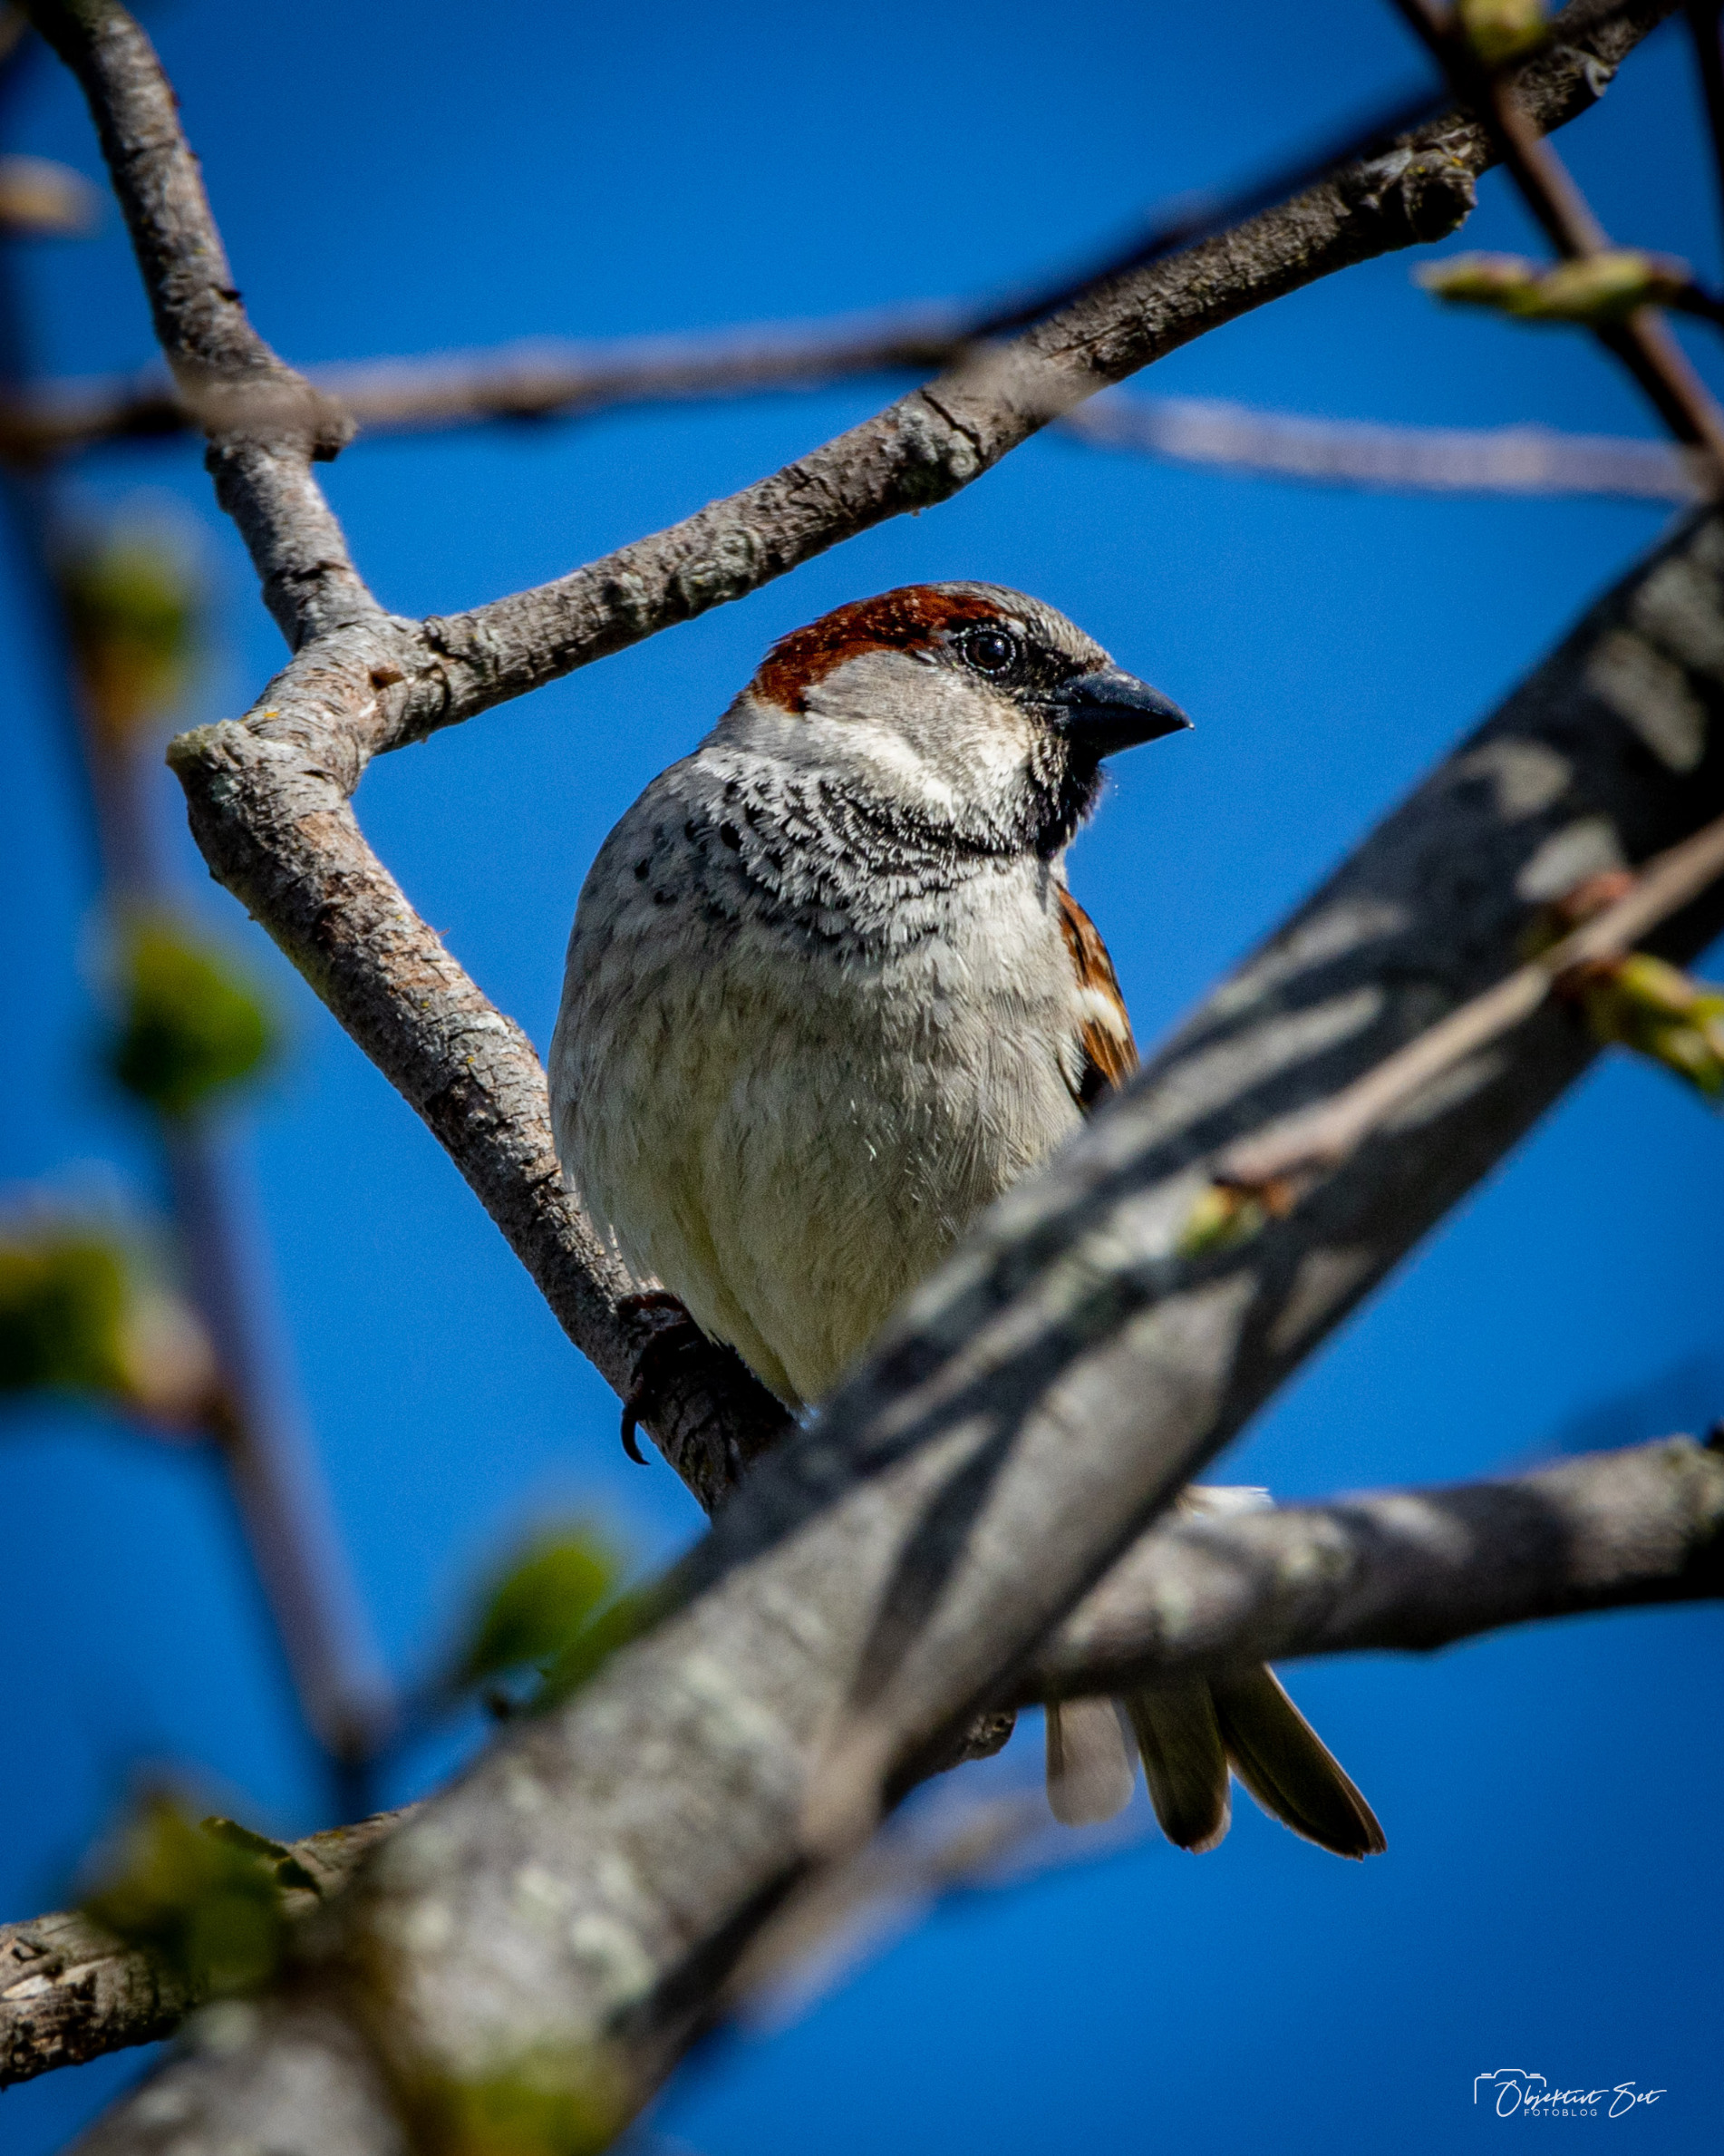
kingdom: Animalia
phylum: Chordata
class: Aves
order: Passeriformes
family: Passeridae
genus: Passer
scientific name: Passer domesticus
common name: Gråspurv
